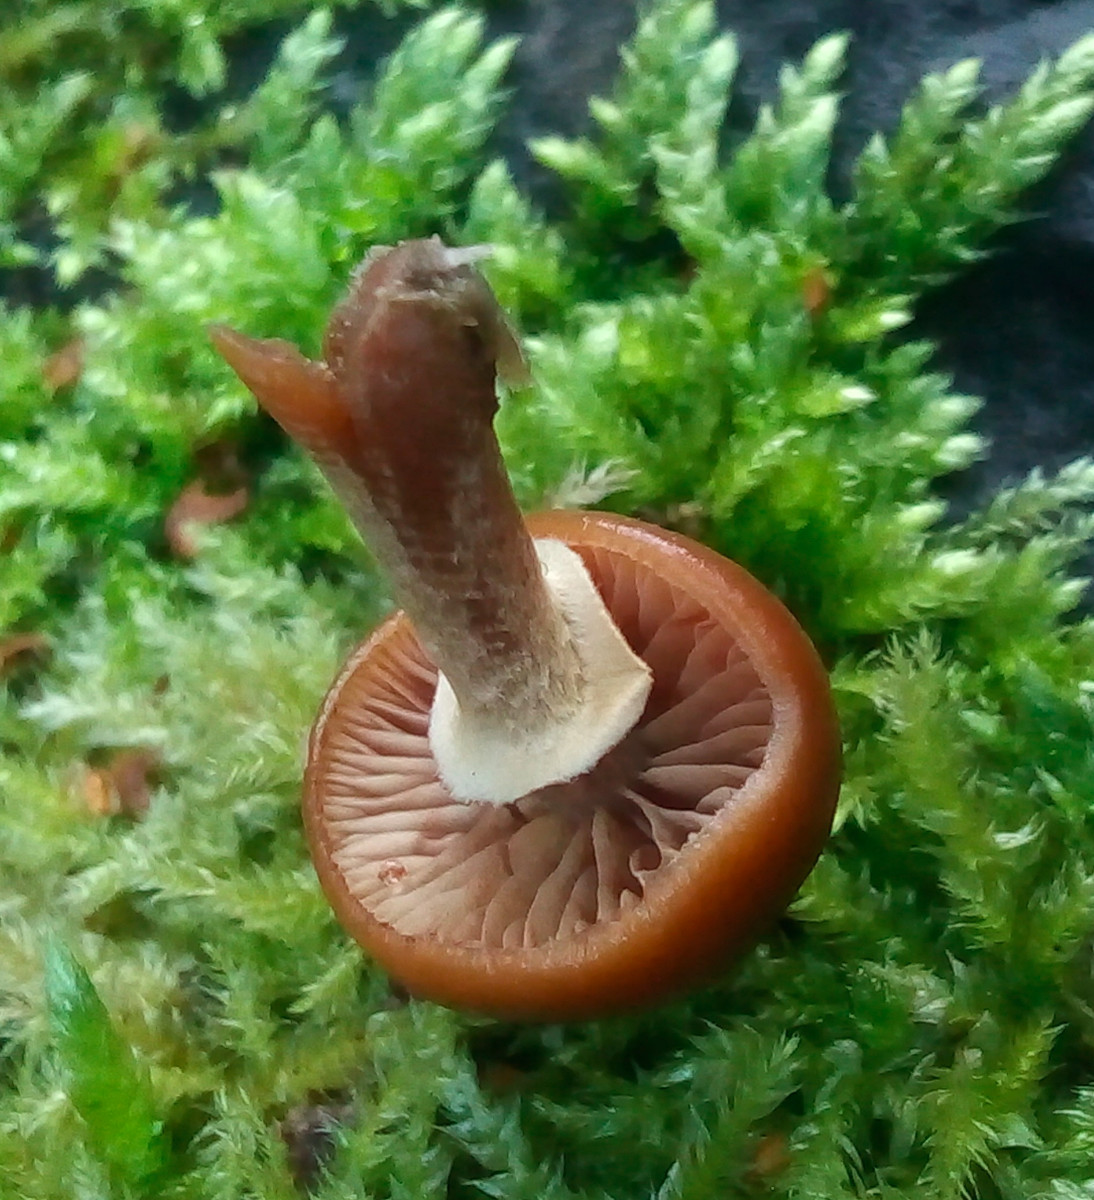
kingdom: Fungi
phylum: Basidiomycota
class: Agaricomycetes
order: Agaricales
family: Hymenogastraceae
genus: Galerina
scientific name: Galerina marginata
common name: randbæltet hjelmhat
